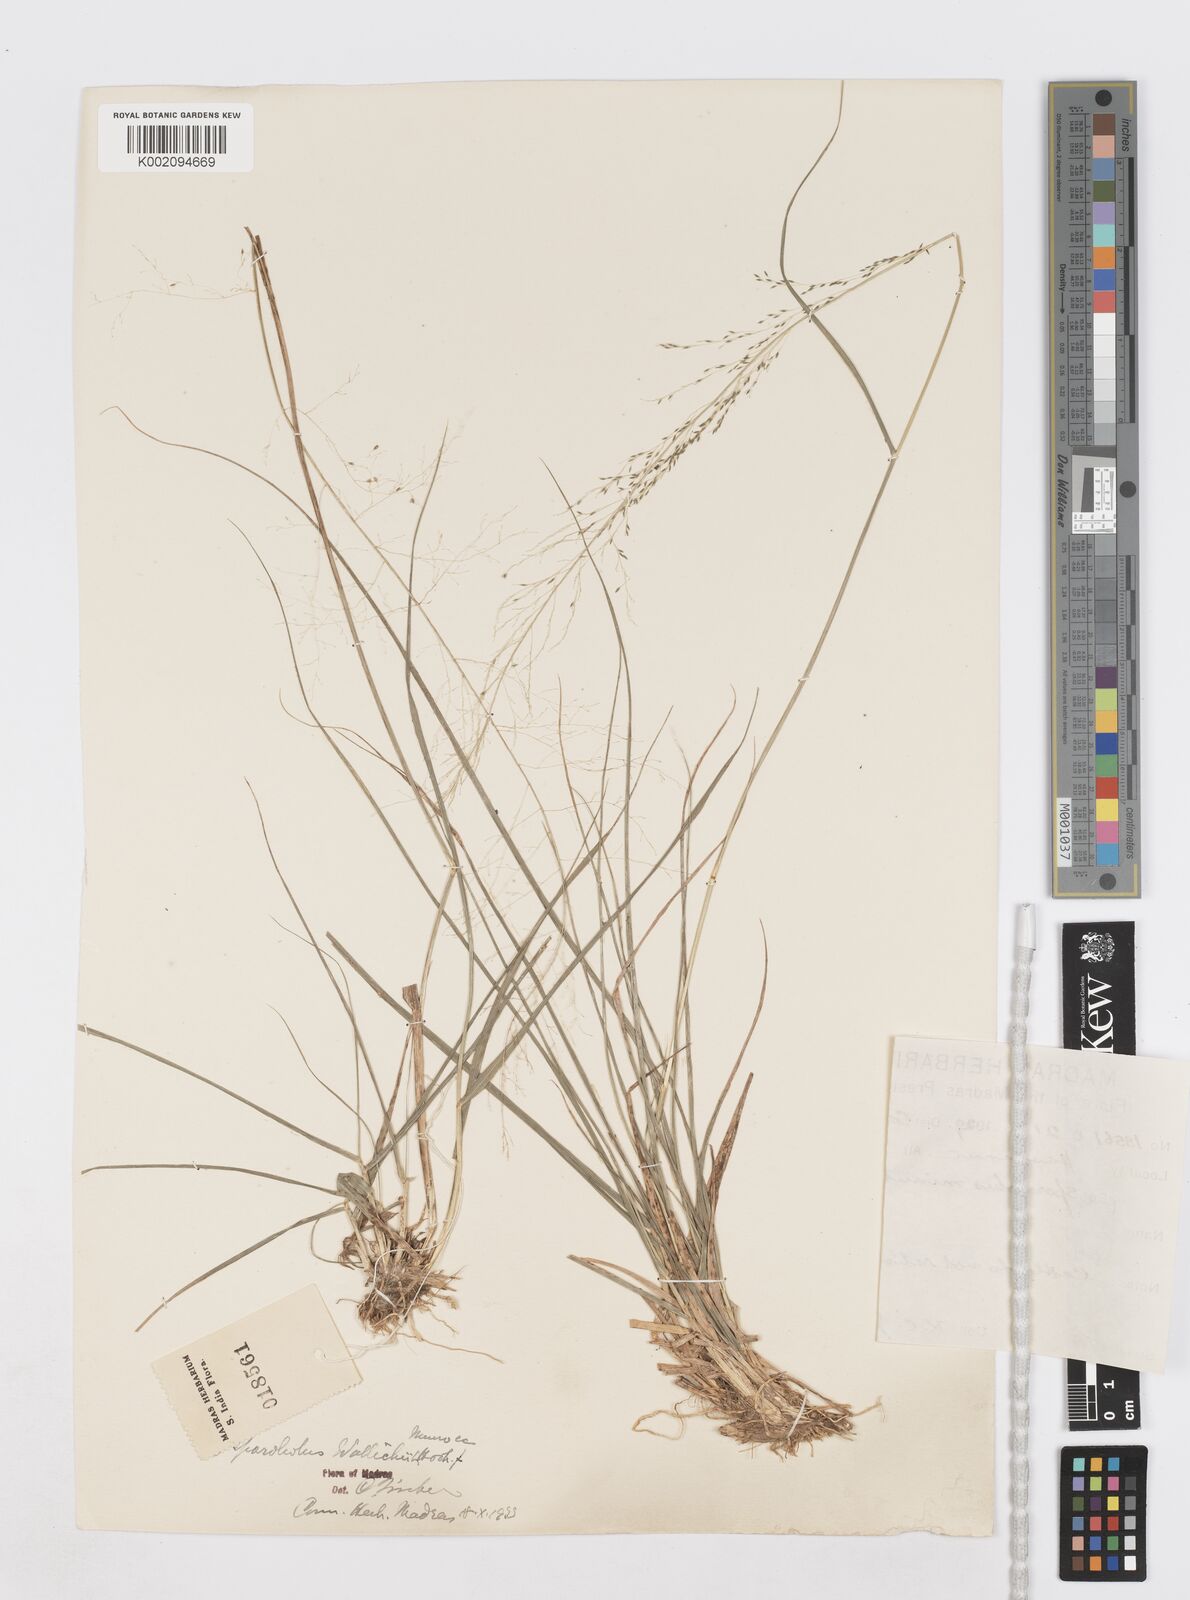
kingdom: Plantae
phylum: Tracheophyta
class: Liliopsida
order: Poales
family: Poaceae
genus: Sporobolus
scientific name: Sporobolus wallichii
